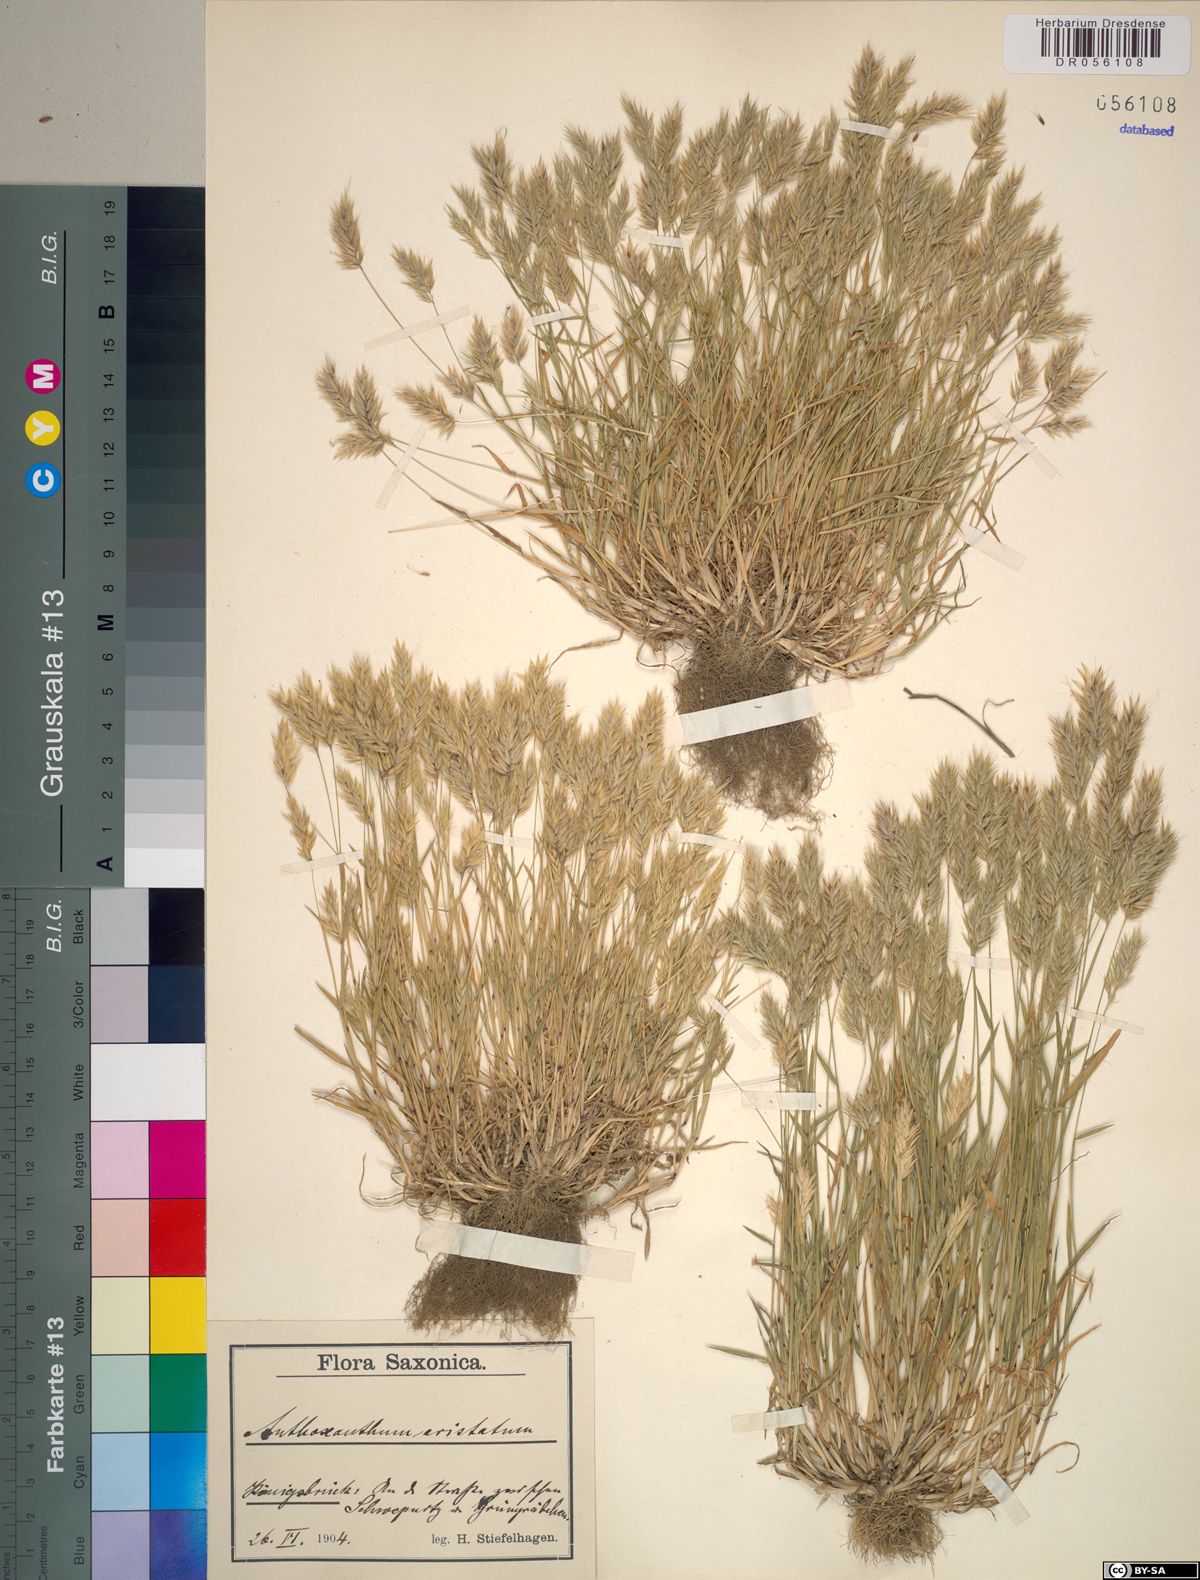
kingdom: Plantae
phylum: Tracheophyta
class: Liliopsida
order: Poales
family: Poaceae
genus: Anthoxanthum
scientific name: Anthoxanthum aristatum
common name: Annual vernal-grass
